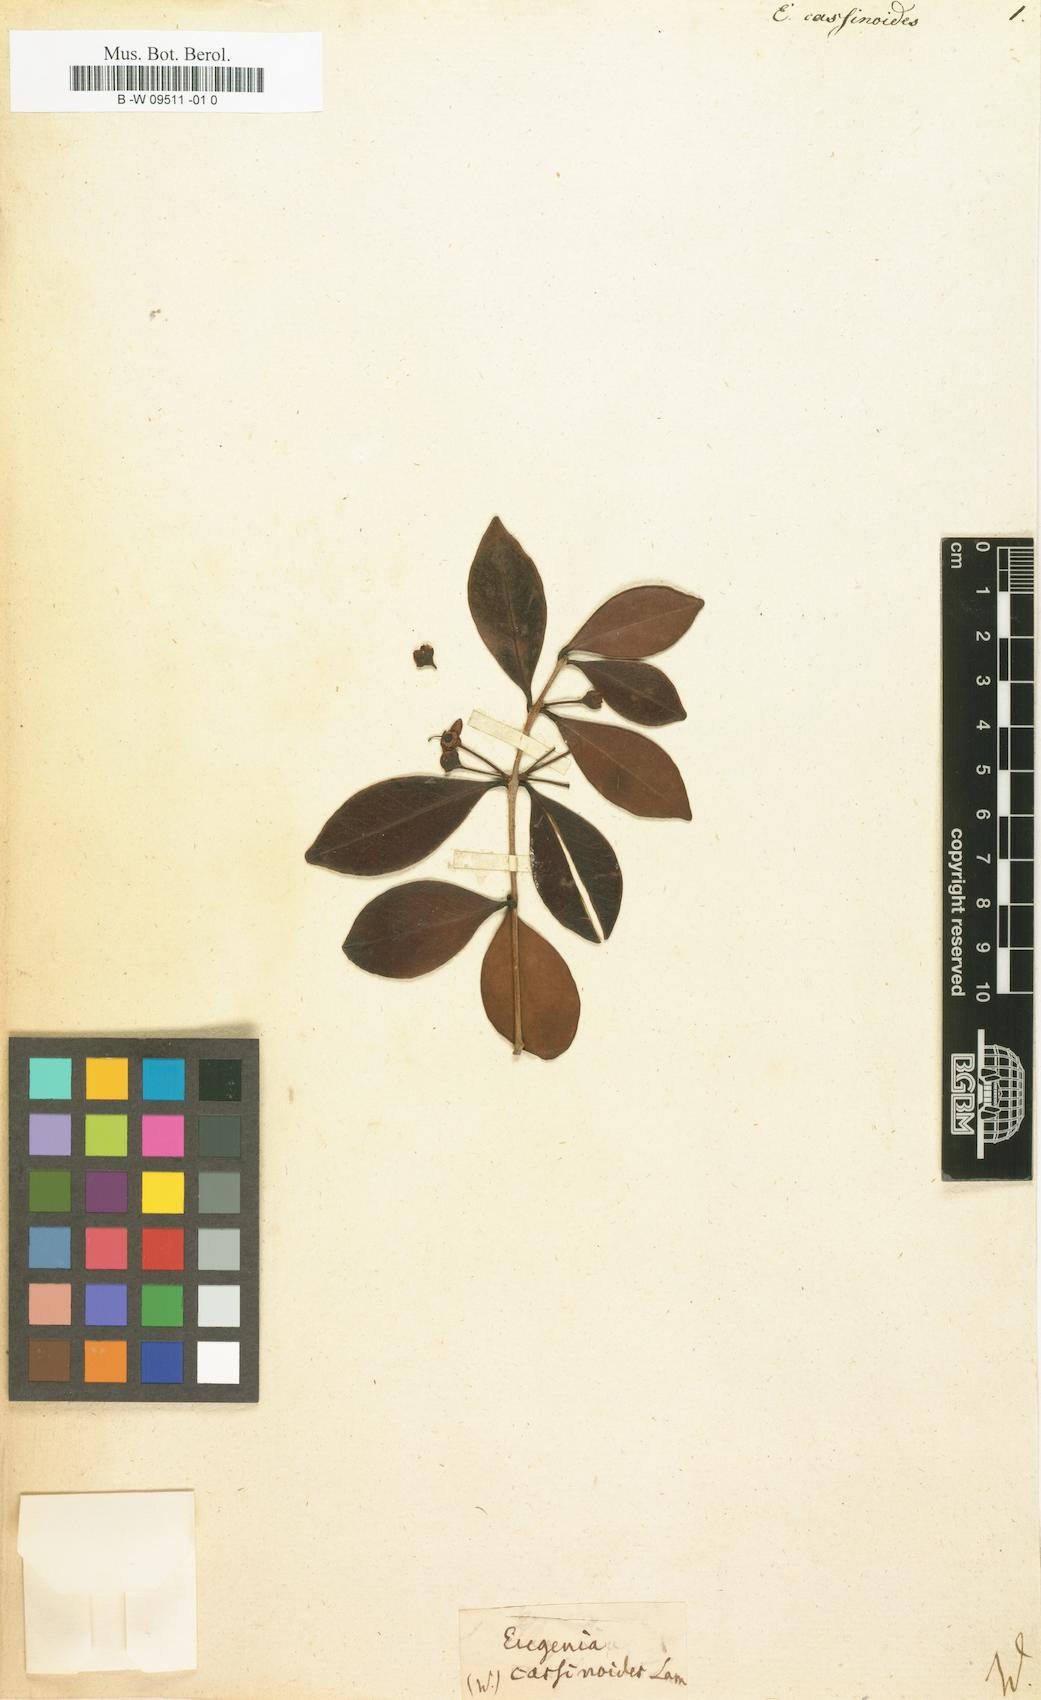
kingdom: Plantae
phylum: Tracheophyta
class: Magnoliopsida
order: Myrtales
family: Myrtaceae
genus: Eugenia
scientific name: Eugenia cassinoides
